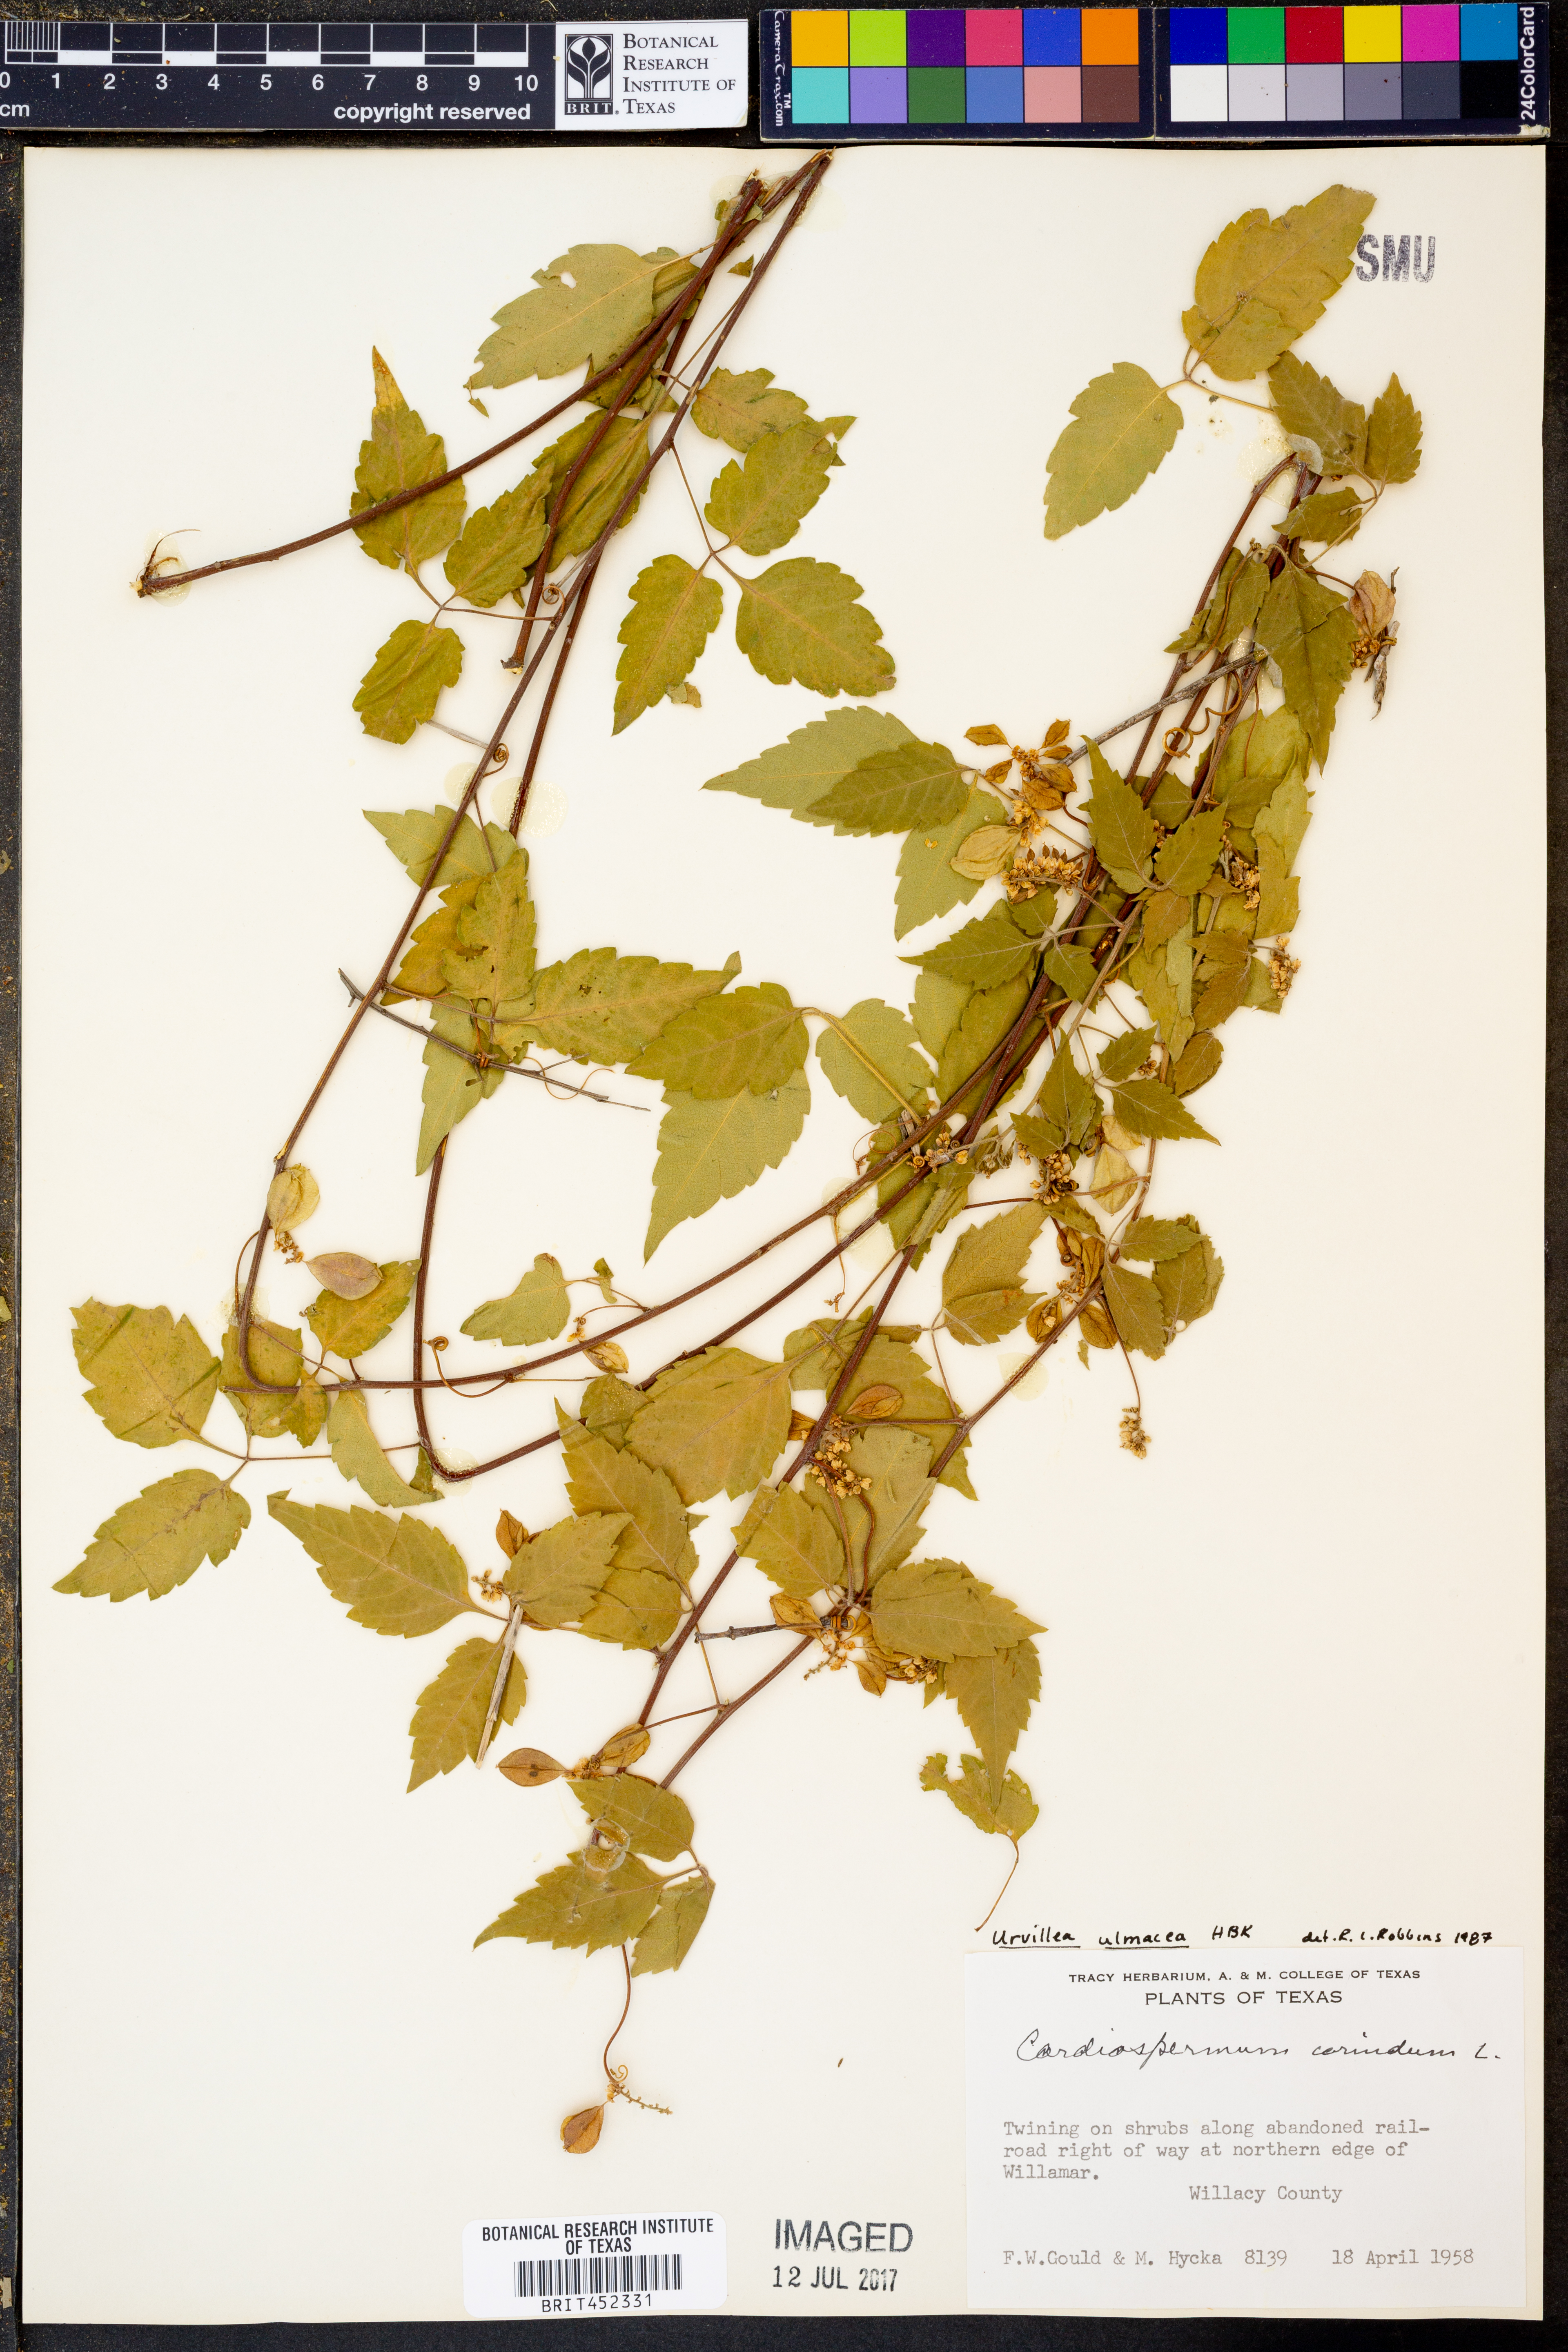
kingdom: Plantae
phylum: Tracheophyta
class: Magnoliopsida
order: Sapindales
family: Sapindaceae
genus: Urvillea
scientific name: Urvillea ulmacea
